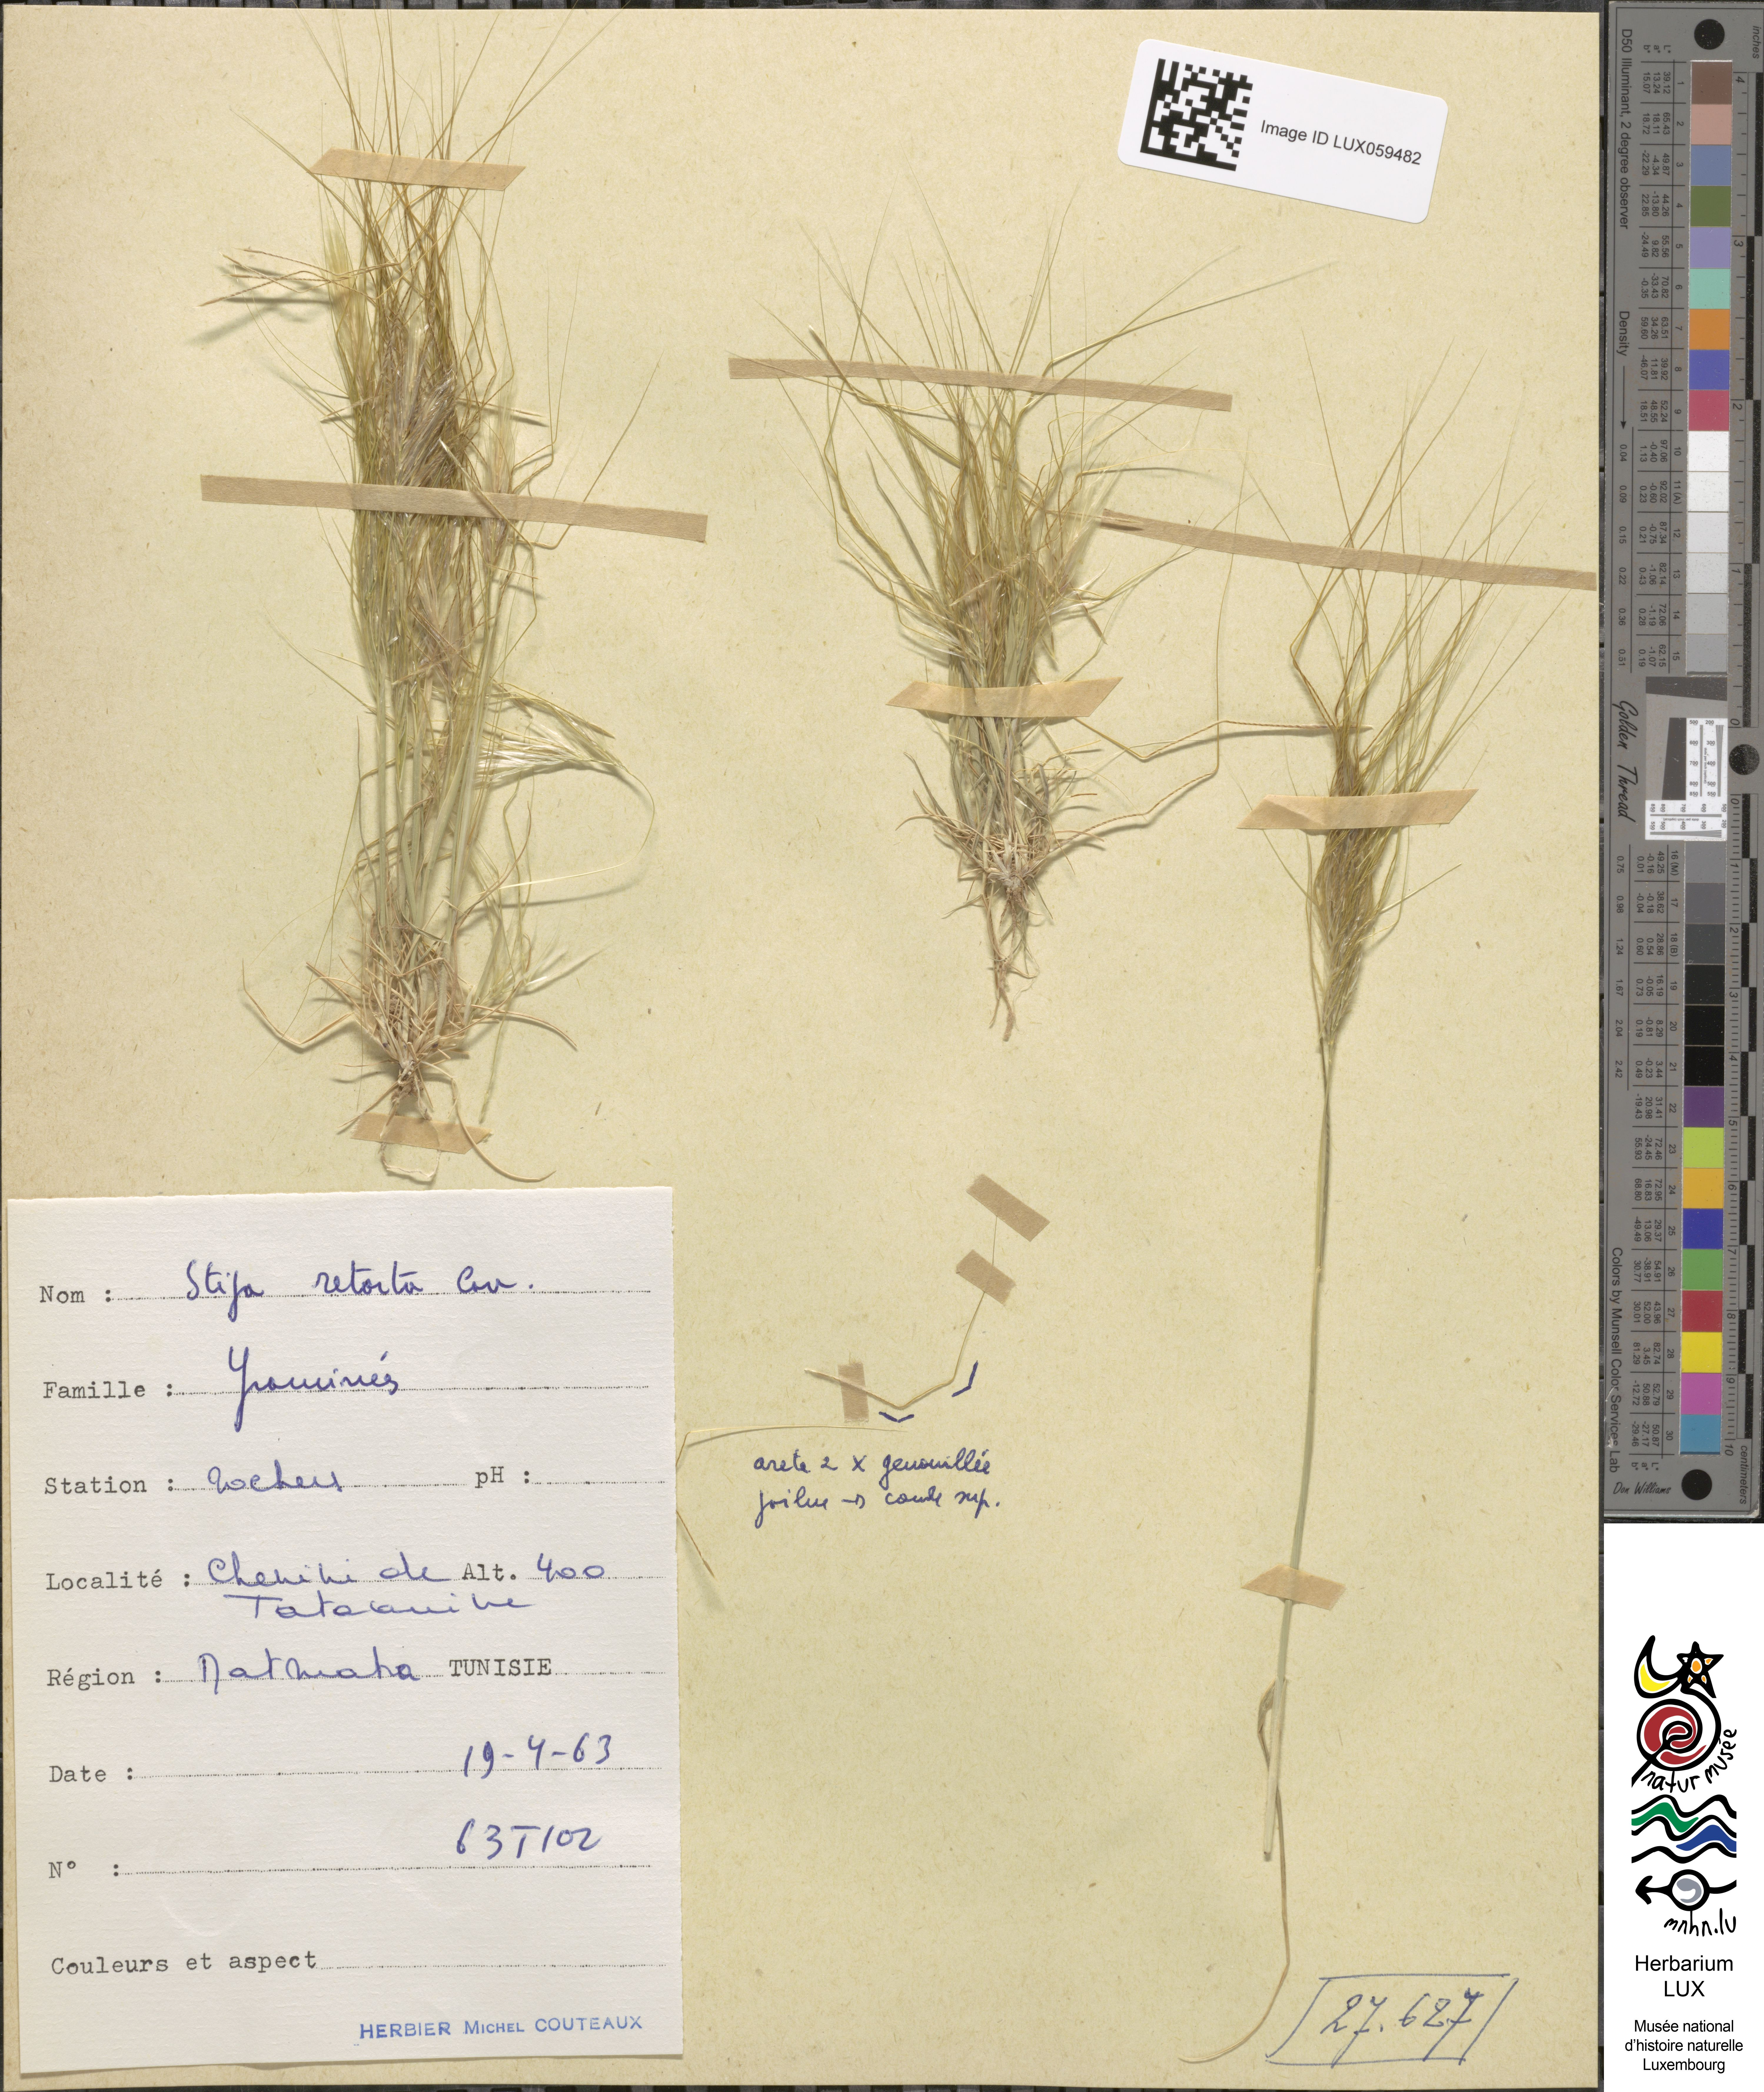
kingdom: Plantae
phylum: Tracheophyta
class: Liliopsida
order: Poales
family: Poaceae
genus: Stipellula
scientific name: Stipellula capensis
